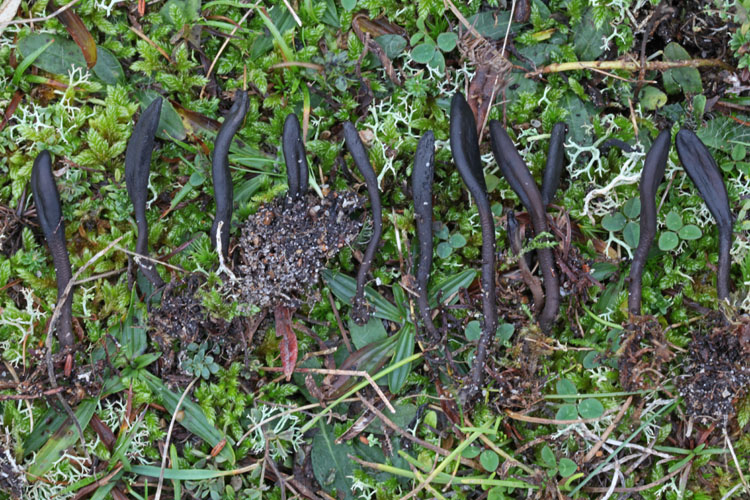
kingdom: Fungi
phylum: Ascomycota
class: Geoglossomycetes
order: Geoglossales
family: Geoglossaceae
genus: Hemileucoglossum
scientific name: Hemileucoglossum elongatum
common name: småsporet jordtunge
